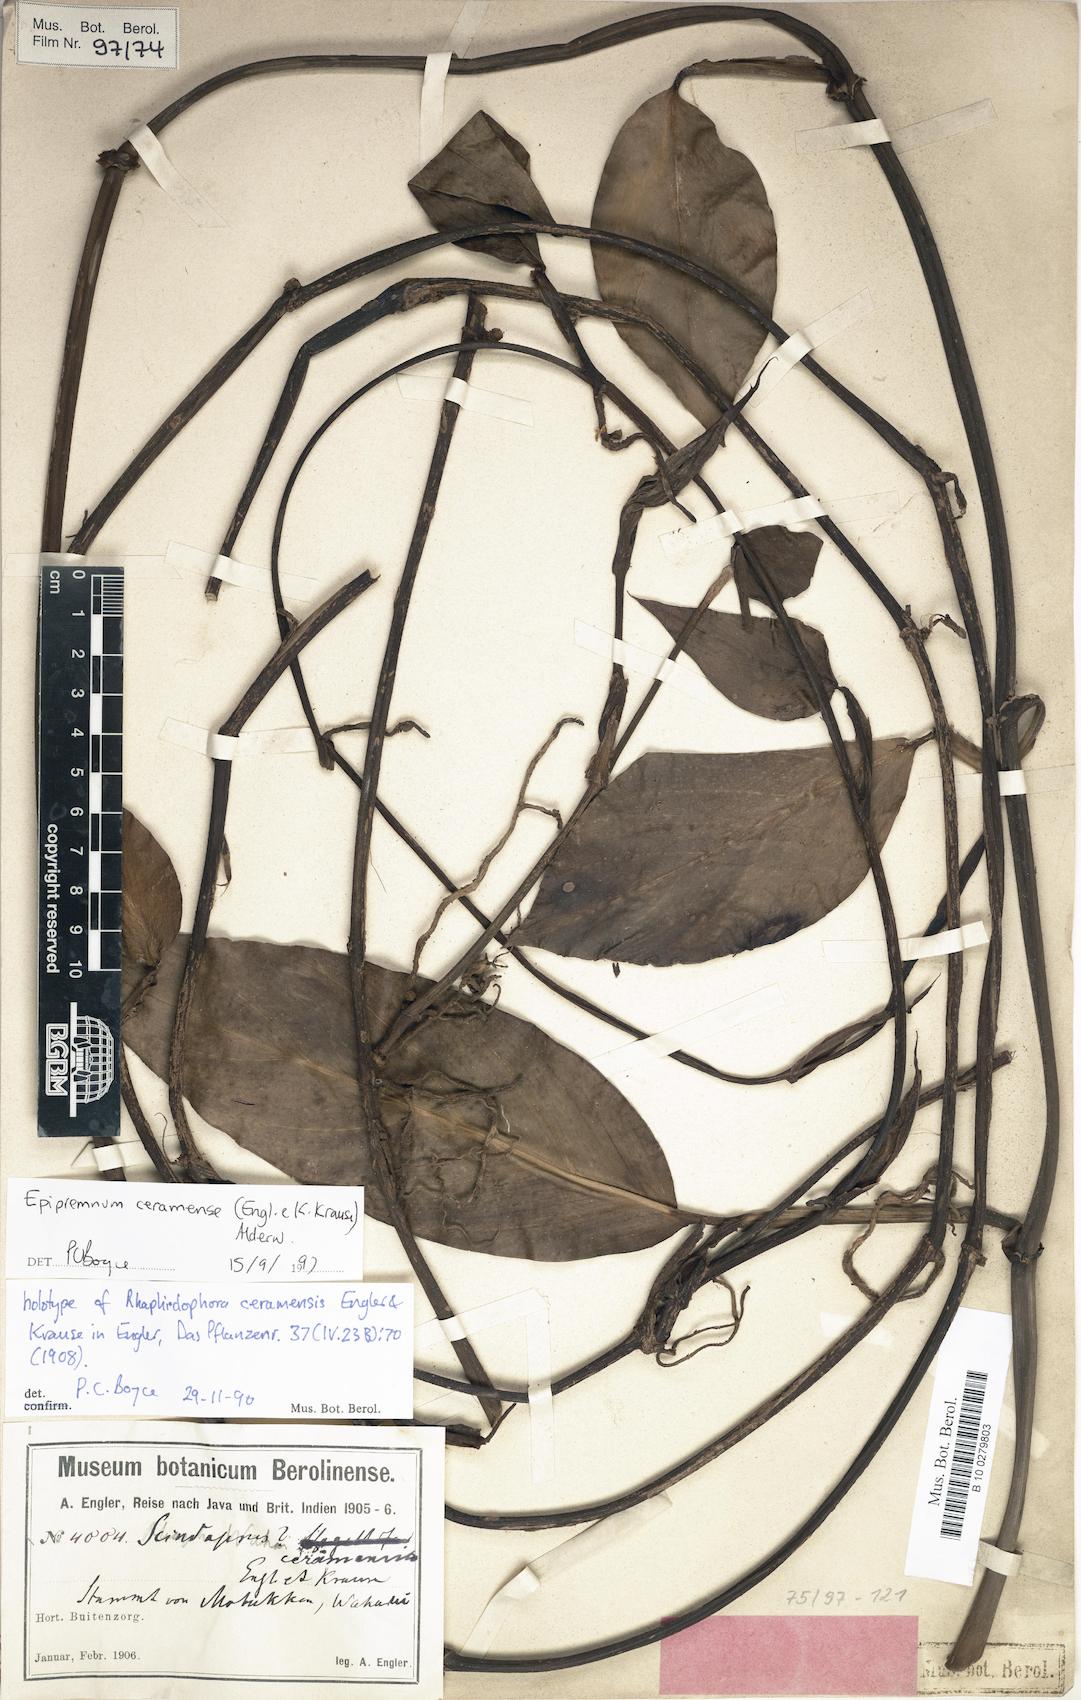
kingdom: Plantae
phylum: Tracheophyta
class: Liliopsida
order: Alismatales
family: Araceae
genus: Rhaphidophora
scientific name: Rhaphidophora
